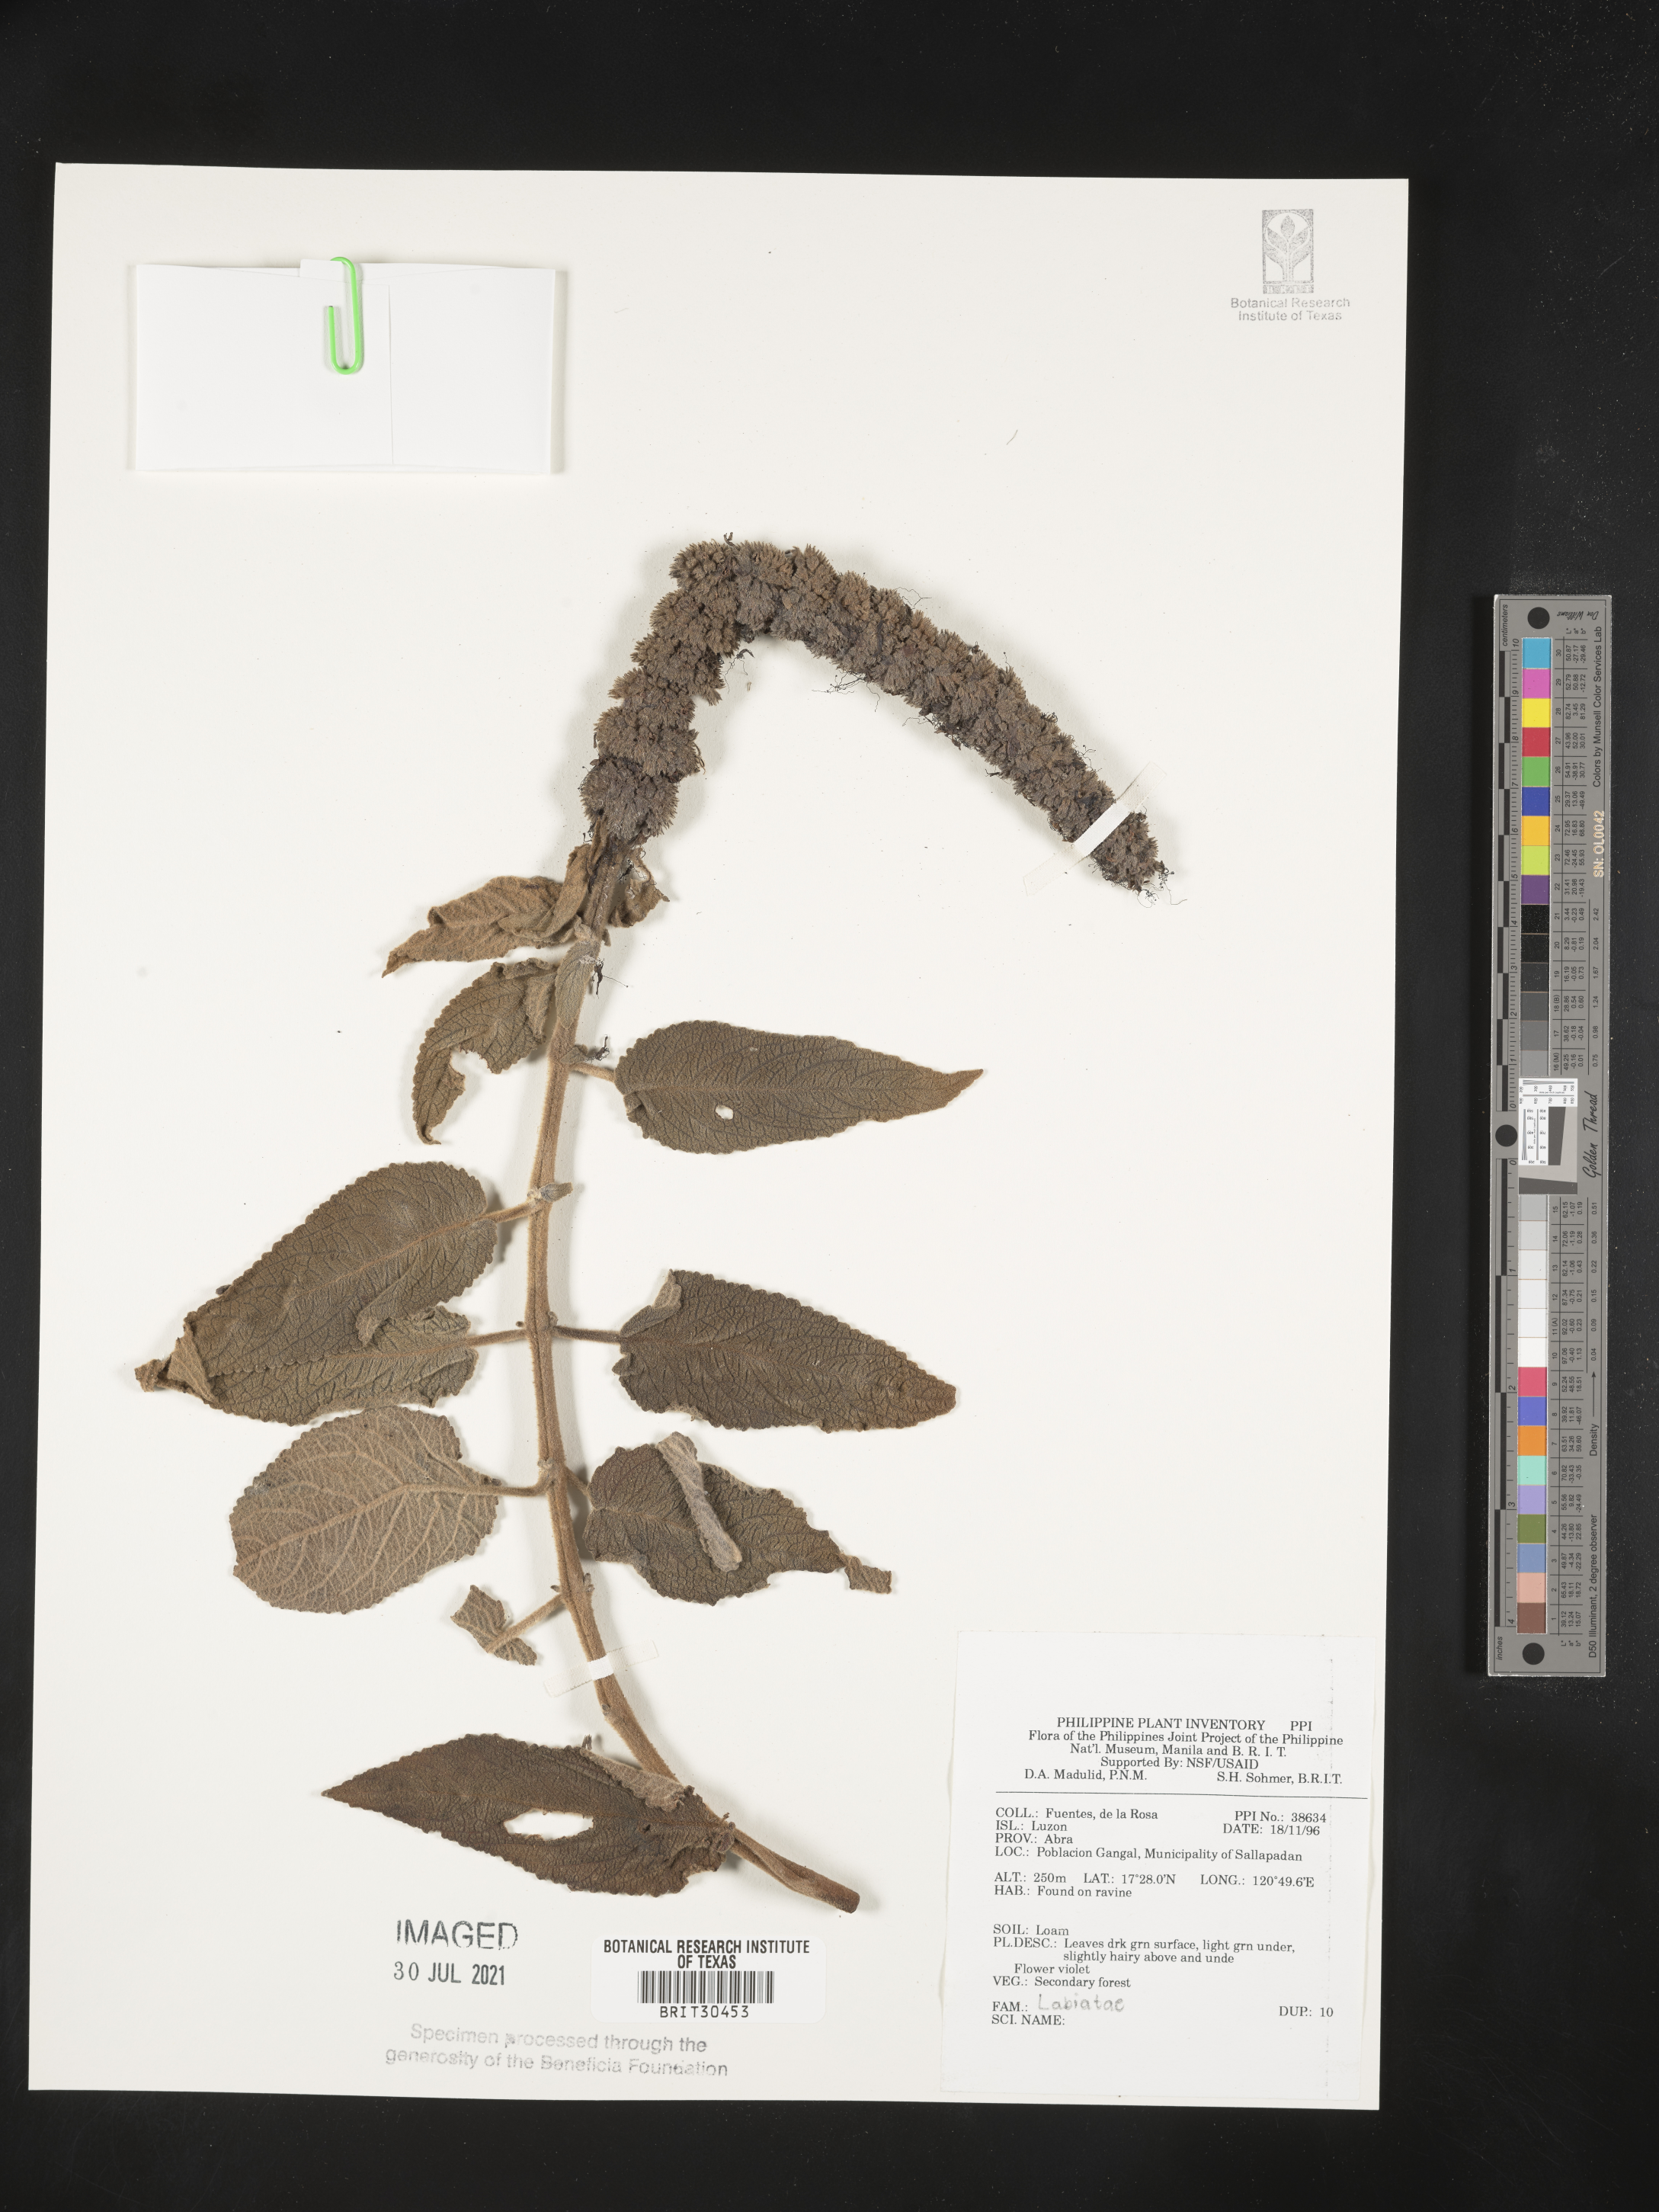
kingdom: Plantae
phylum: Tracheophyta
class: Magnoliopsida
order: Lamiales
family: Lamiaceae
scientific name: Lamiaceae
